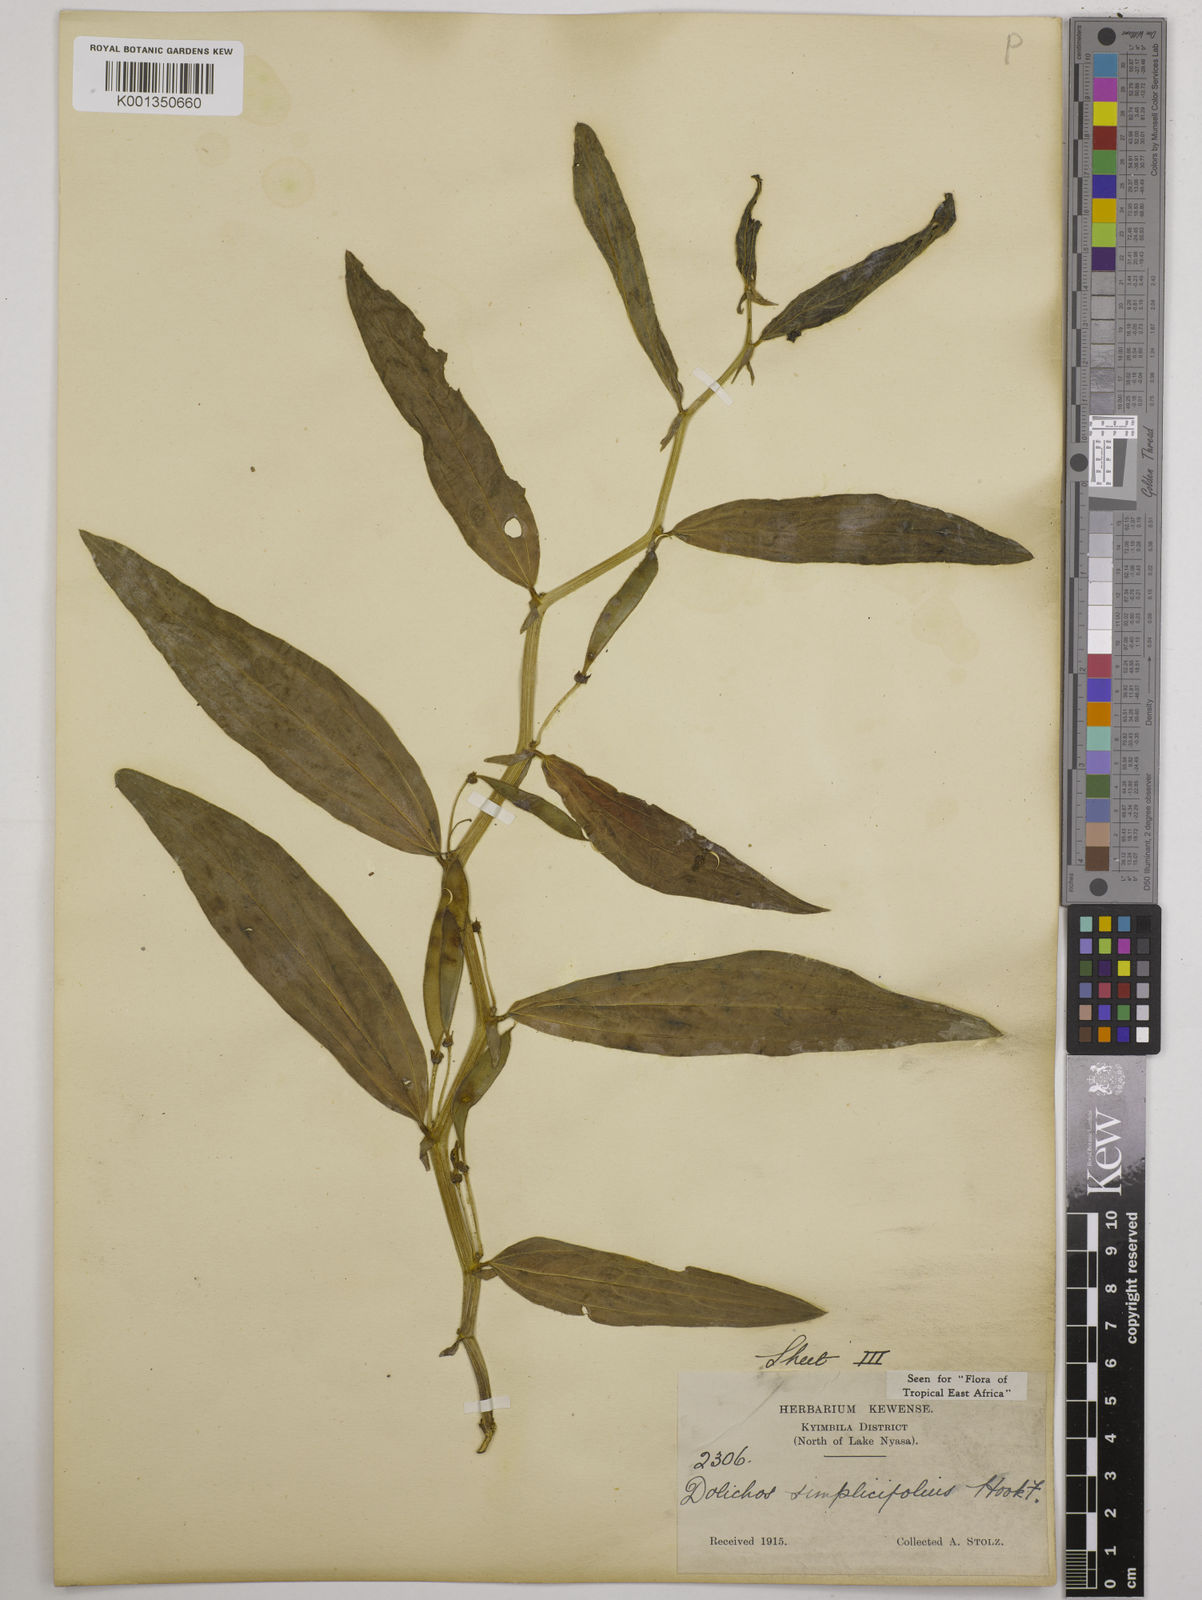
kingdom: Plantae
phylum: Tracheophyta
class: Magnoliopsida
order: Fabales
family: Fabaceae
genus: Dolichos
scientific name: Dolichos simplicifolius
